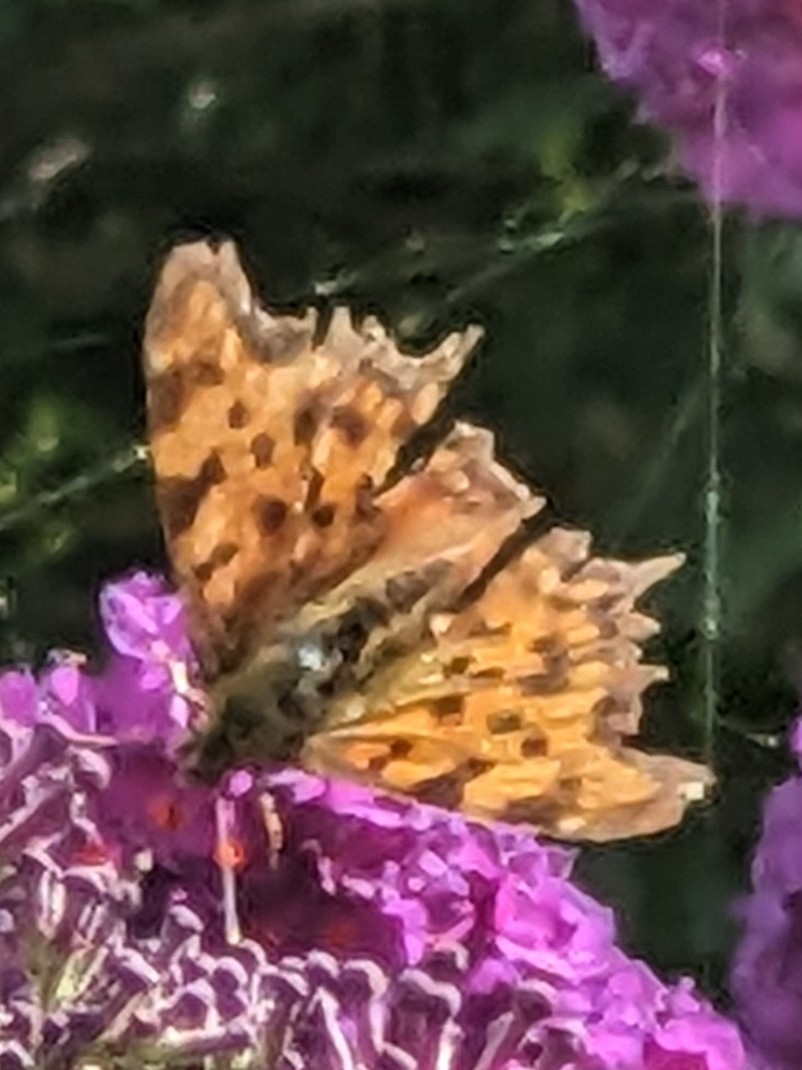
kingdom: Animalia
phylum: Arthropoda
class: Insecta
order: Lepidoptera
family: Nymphalidae
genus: Polygonia
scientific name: Polygonia c-album
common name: Det hvide C
